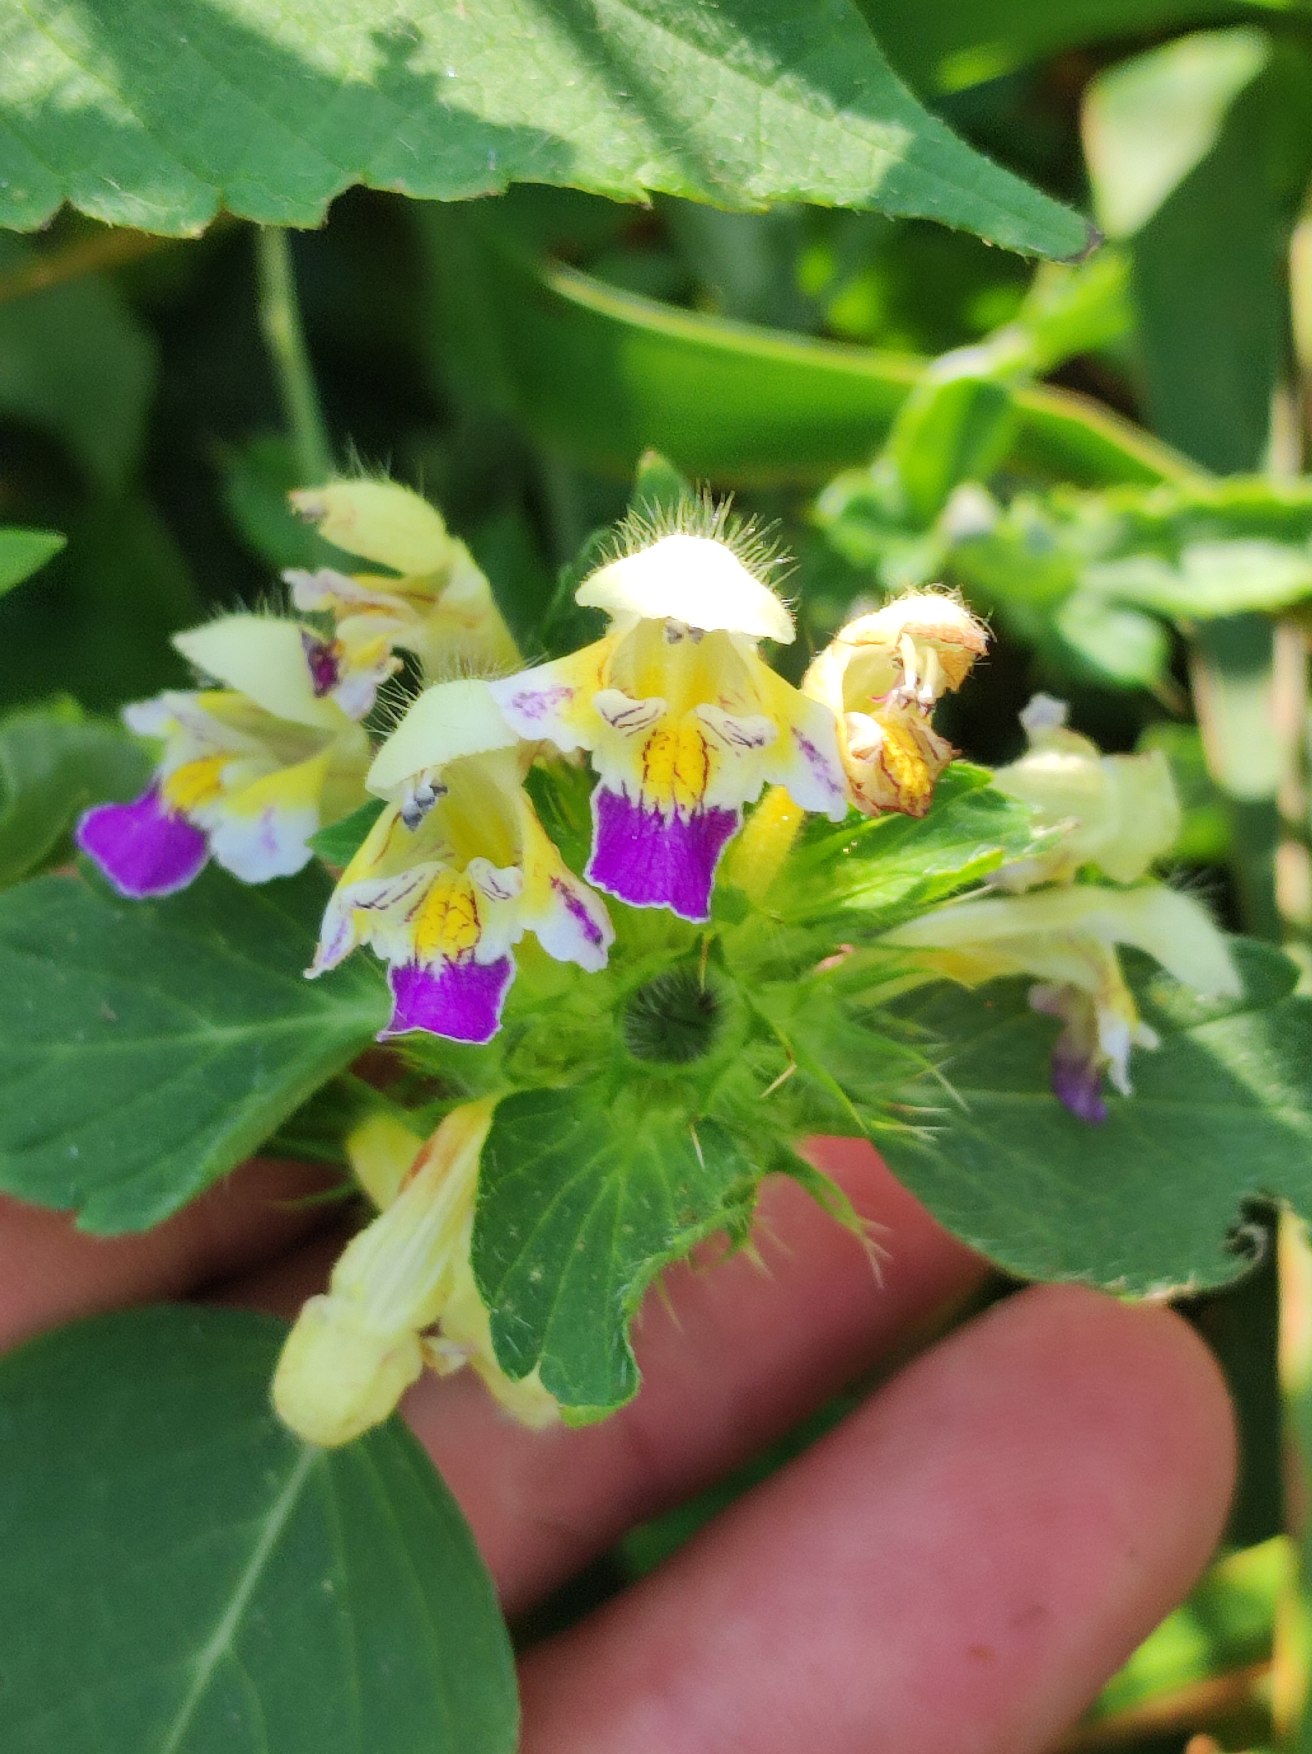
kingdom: Plantae
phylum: Tracheophyta
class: Magnoliopsida
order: Lamiales
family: Lamiaceae
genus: Galeopsis
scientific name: Galeopsis speciosa
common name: Hamp-hanekro
